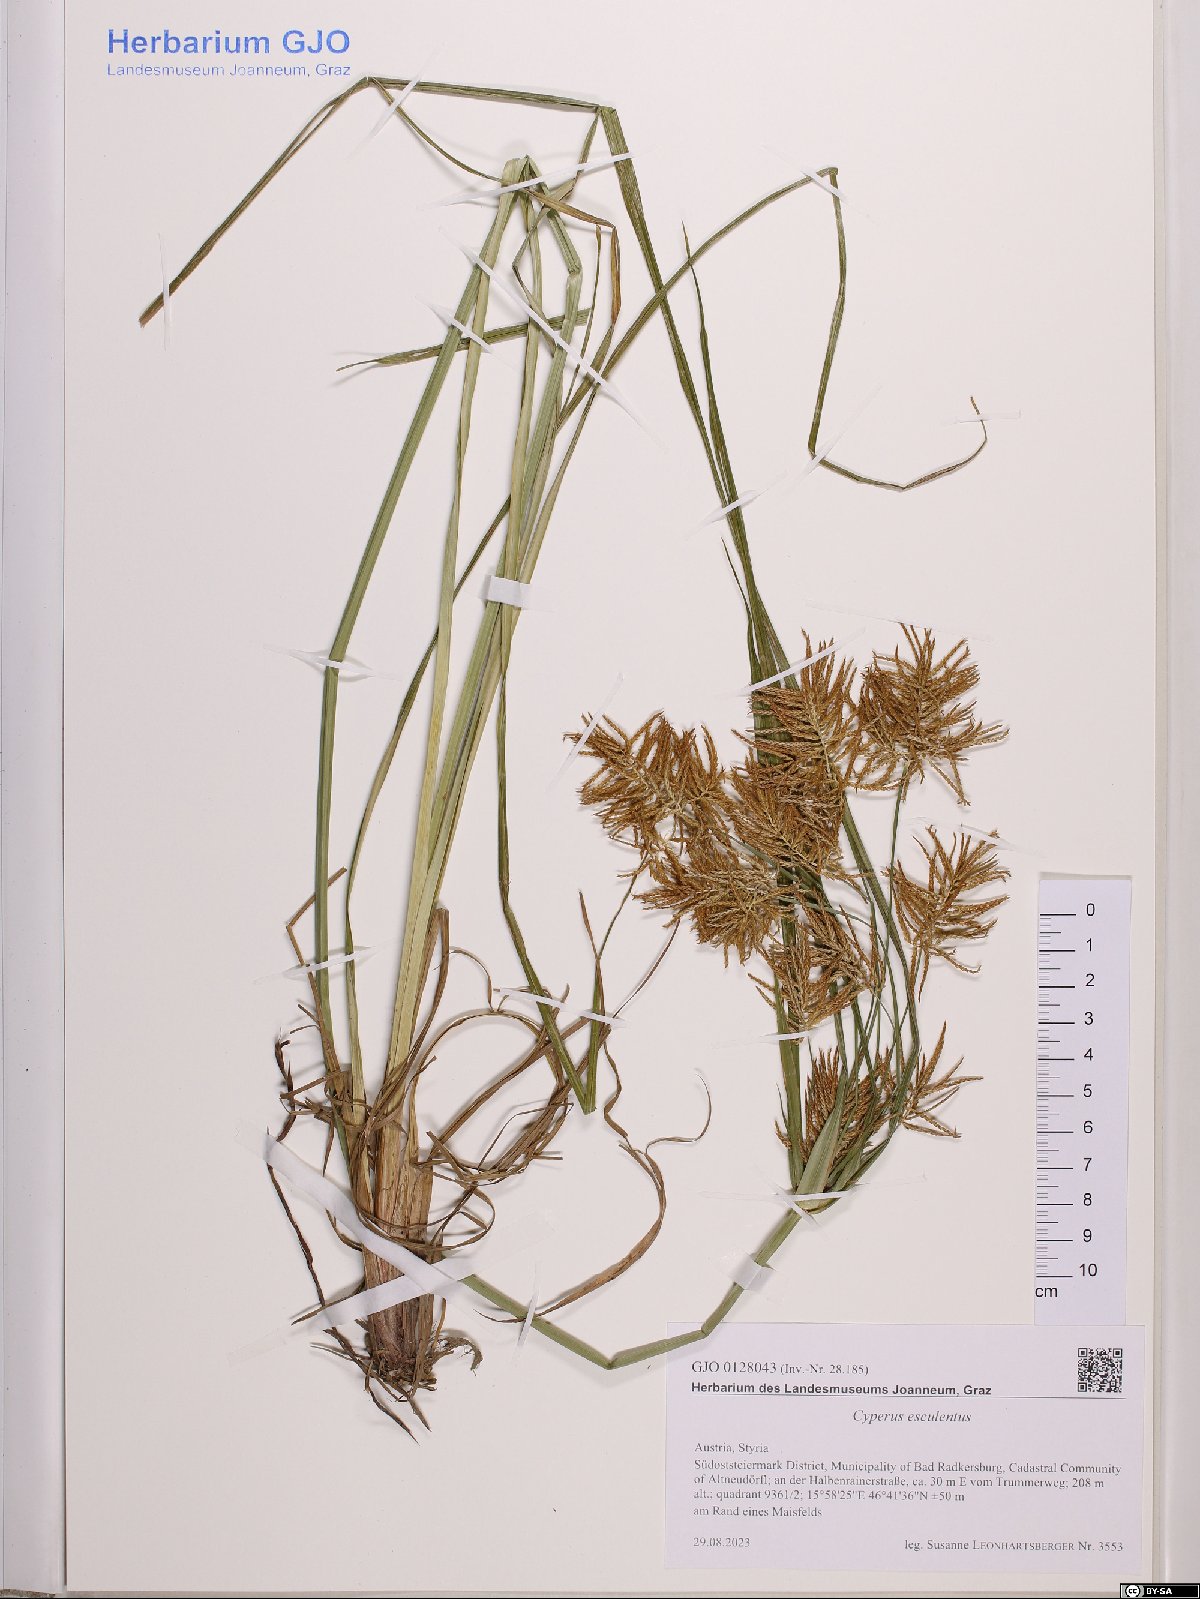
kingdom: Plantae
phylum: Tracheophyta
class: Liliopsida
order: Poales
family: Cyperaceae
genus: Cyperus
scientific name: Cyperus esculentus
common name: Yellow nutsedge
